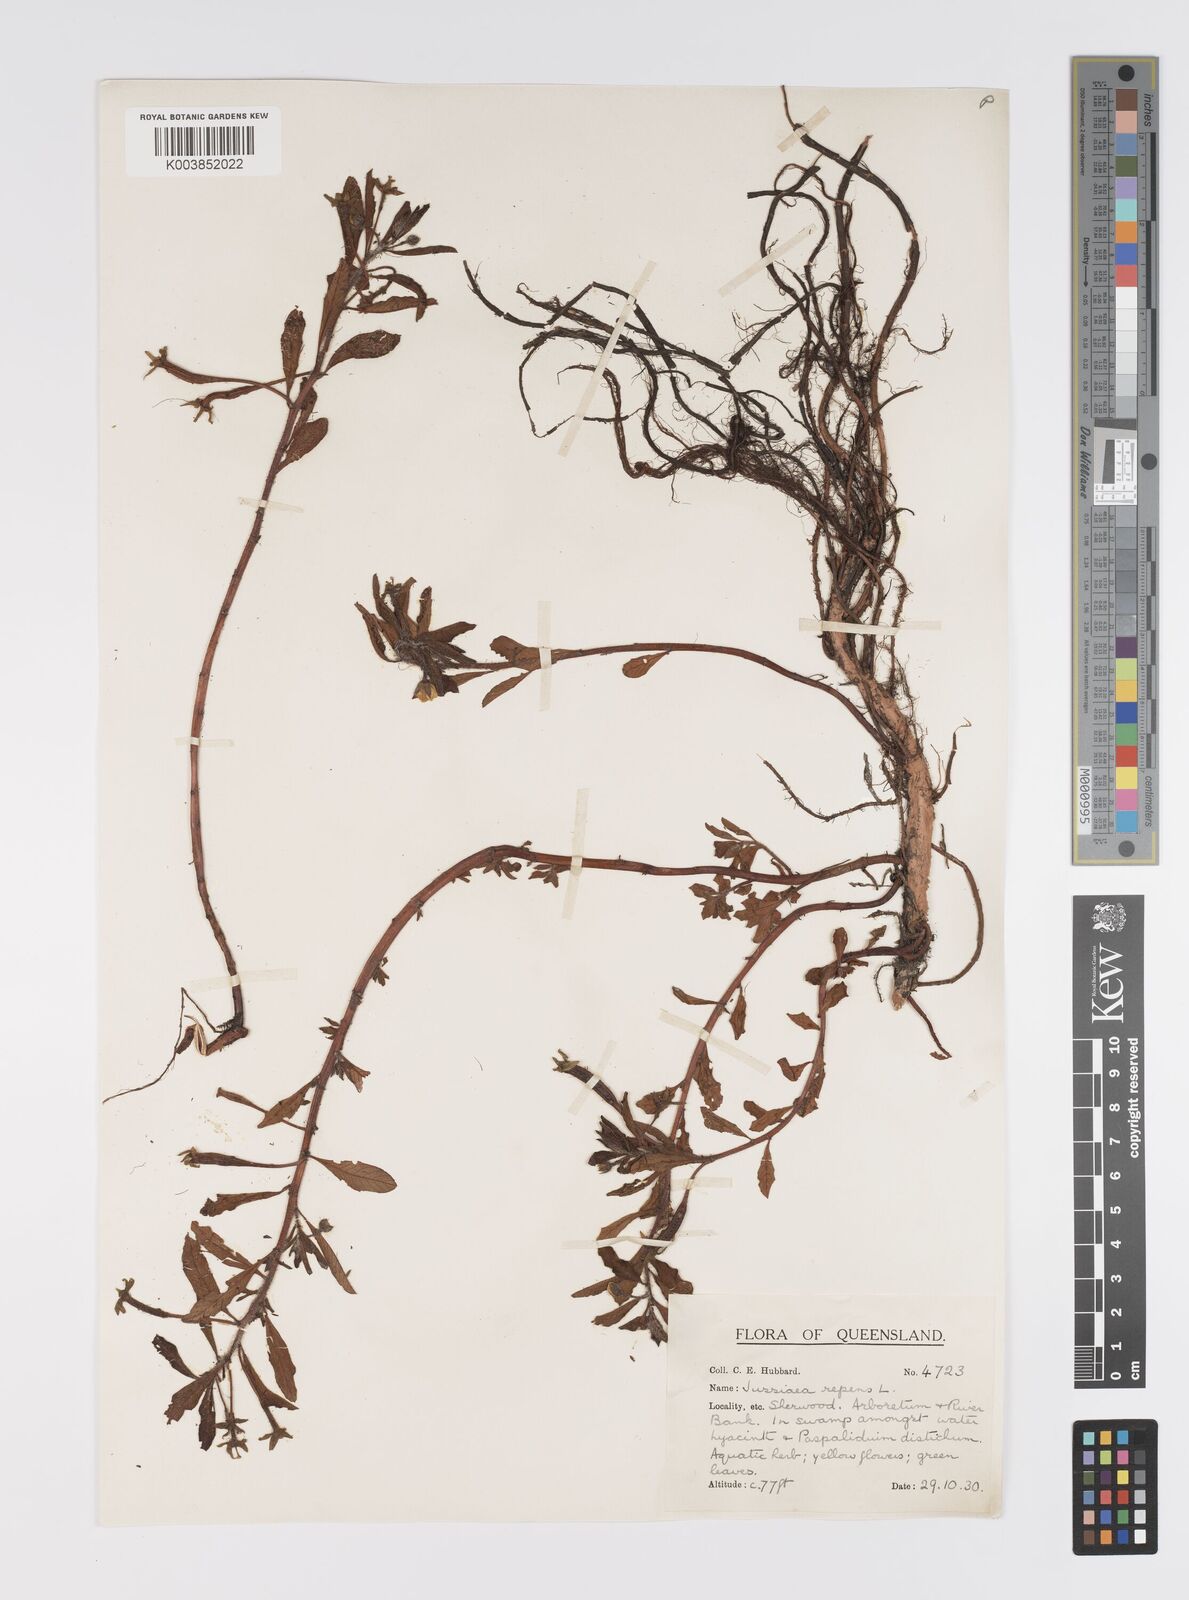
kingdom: Plantae
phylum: Tracheophyta
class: Magnoliopsida
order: Myrtales
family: Onagraceae
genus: Ludwigia
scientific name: Ludwigia peploides
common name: Floating primrose-willow
